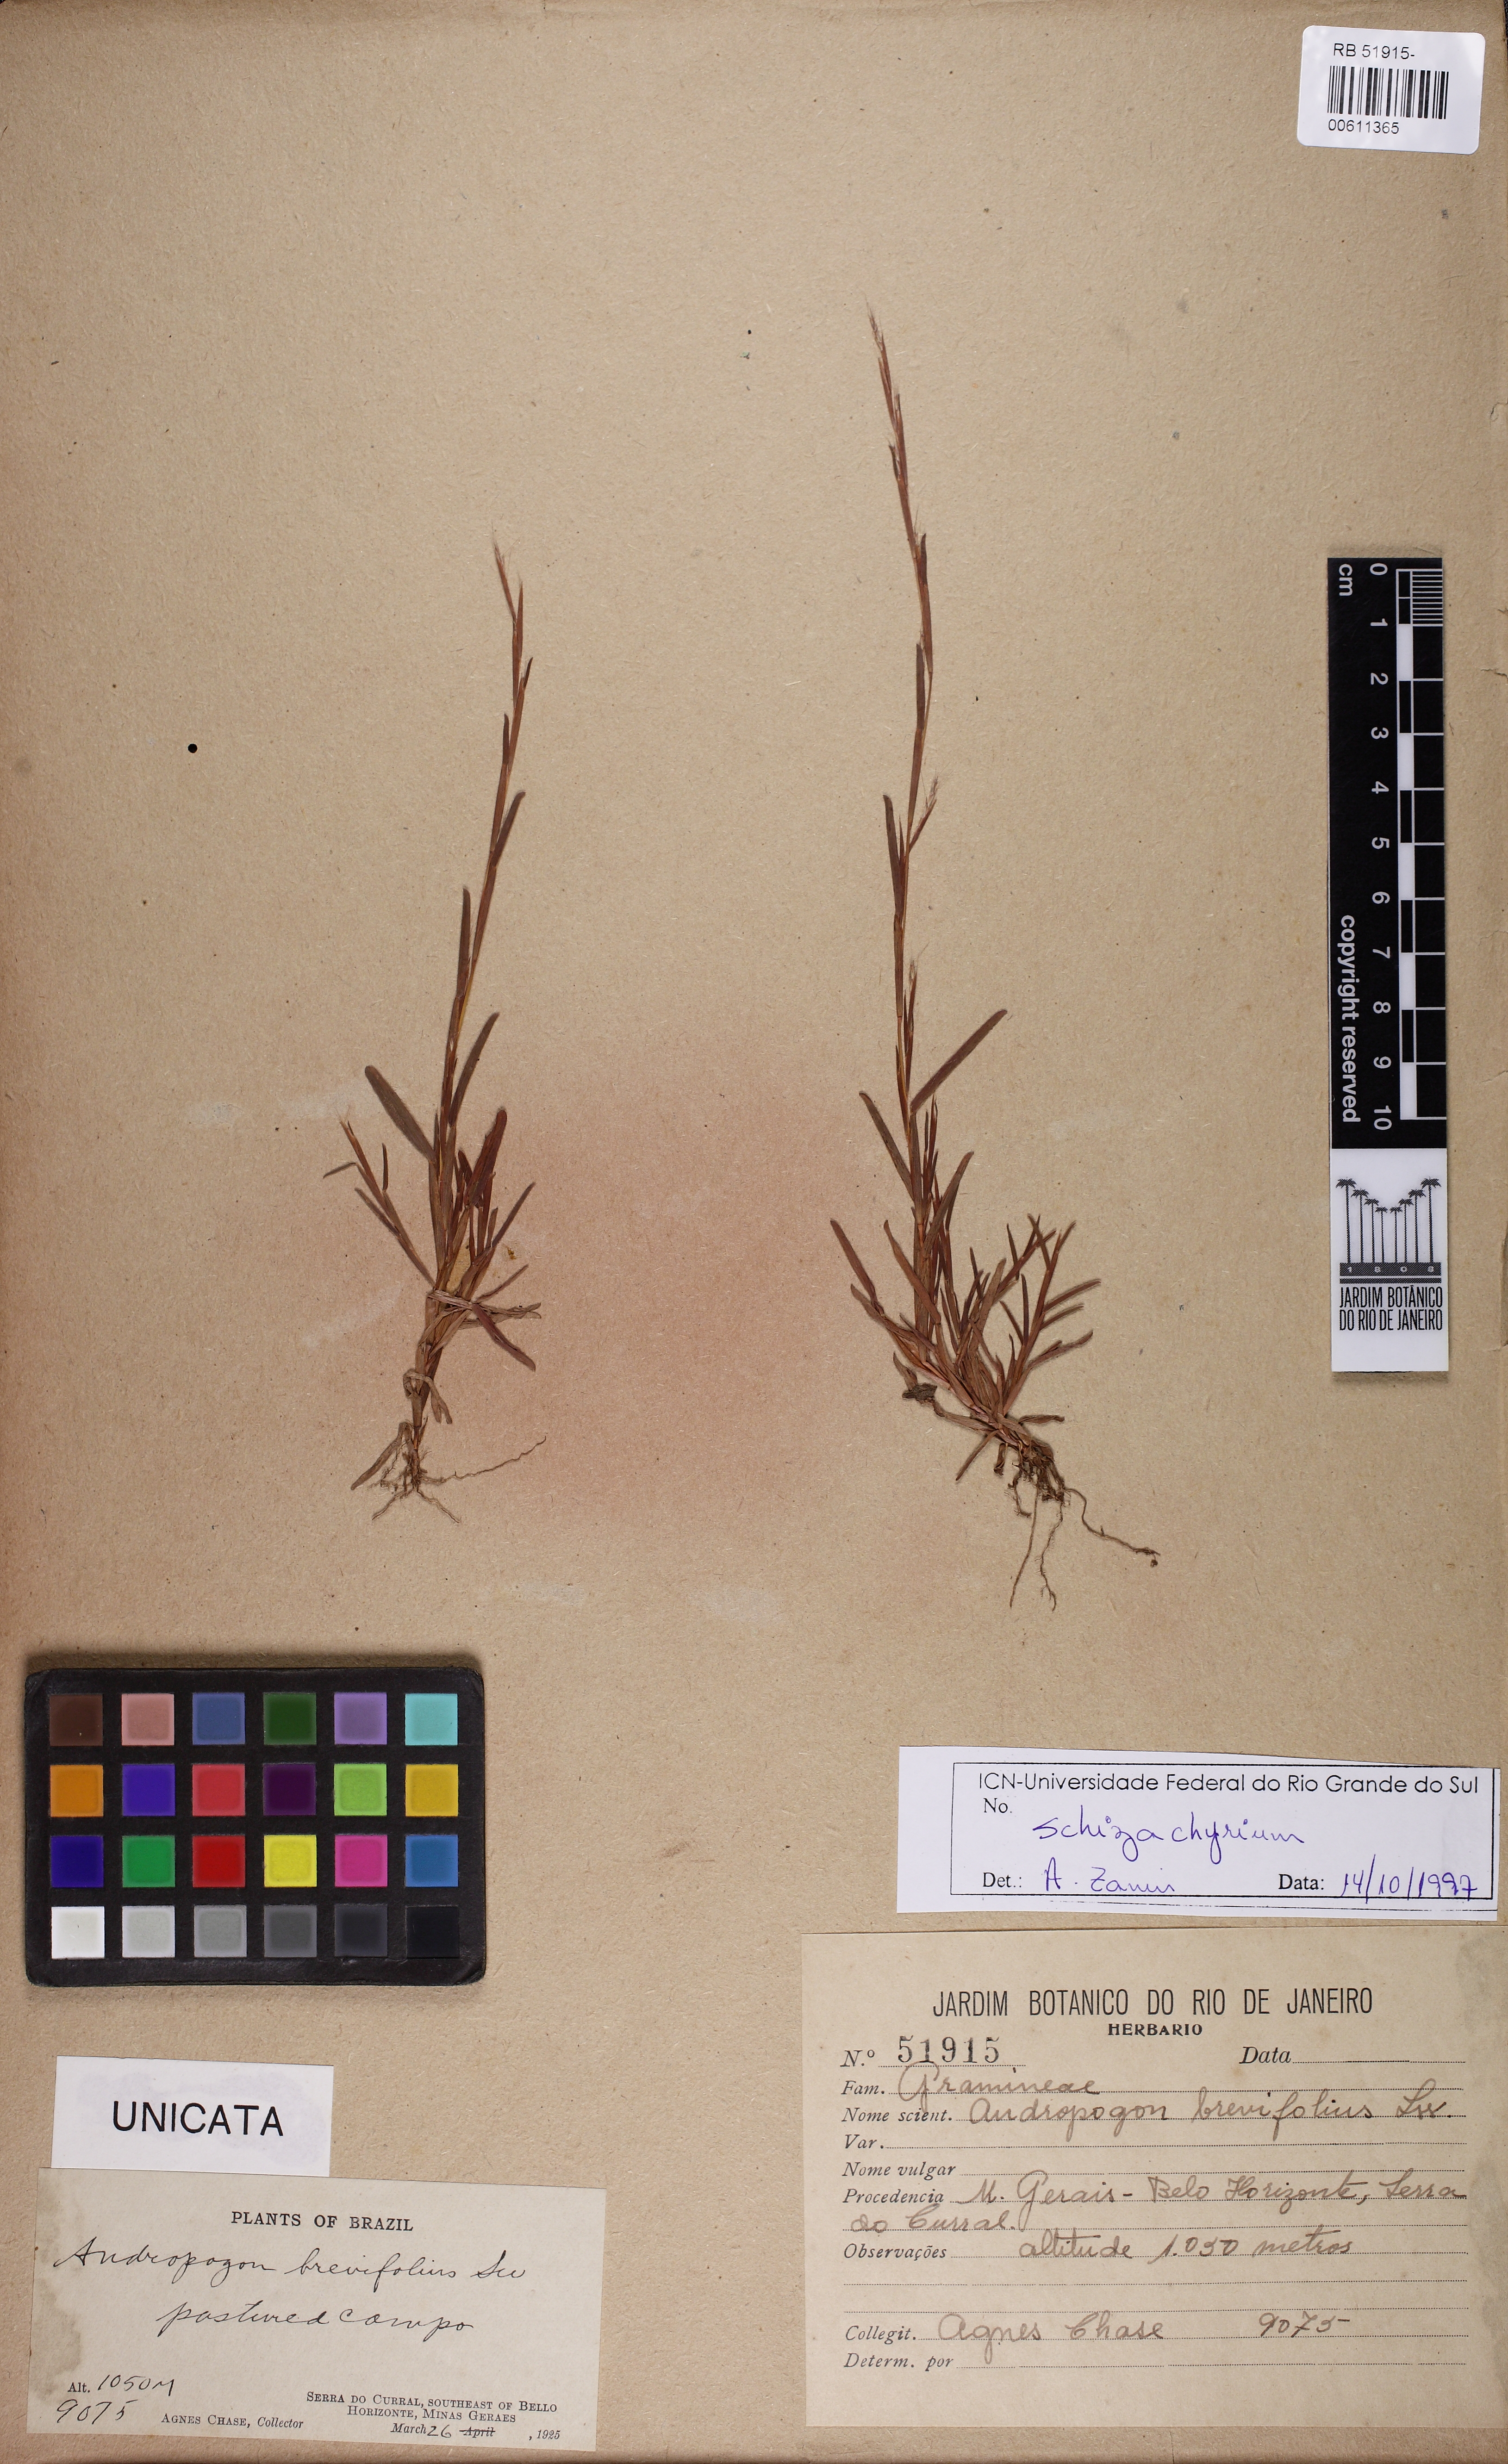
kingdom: Plantae
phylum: Tracheophyta
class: Liliopsida
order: Poales
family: Poaceae
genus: Schizachyrium
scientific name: Schizachyrium brevifolium
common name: Serillo dulce
